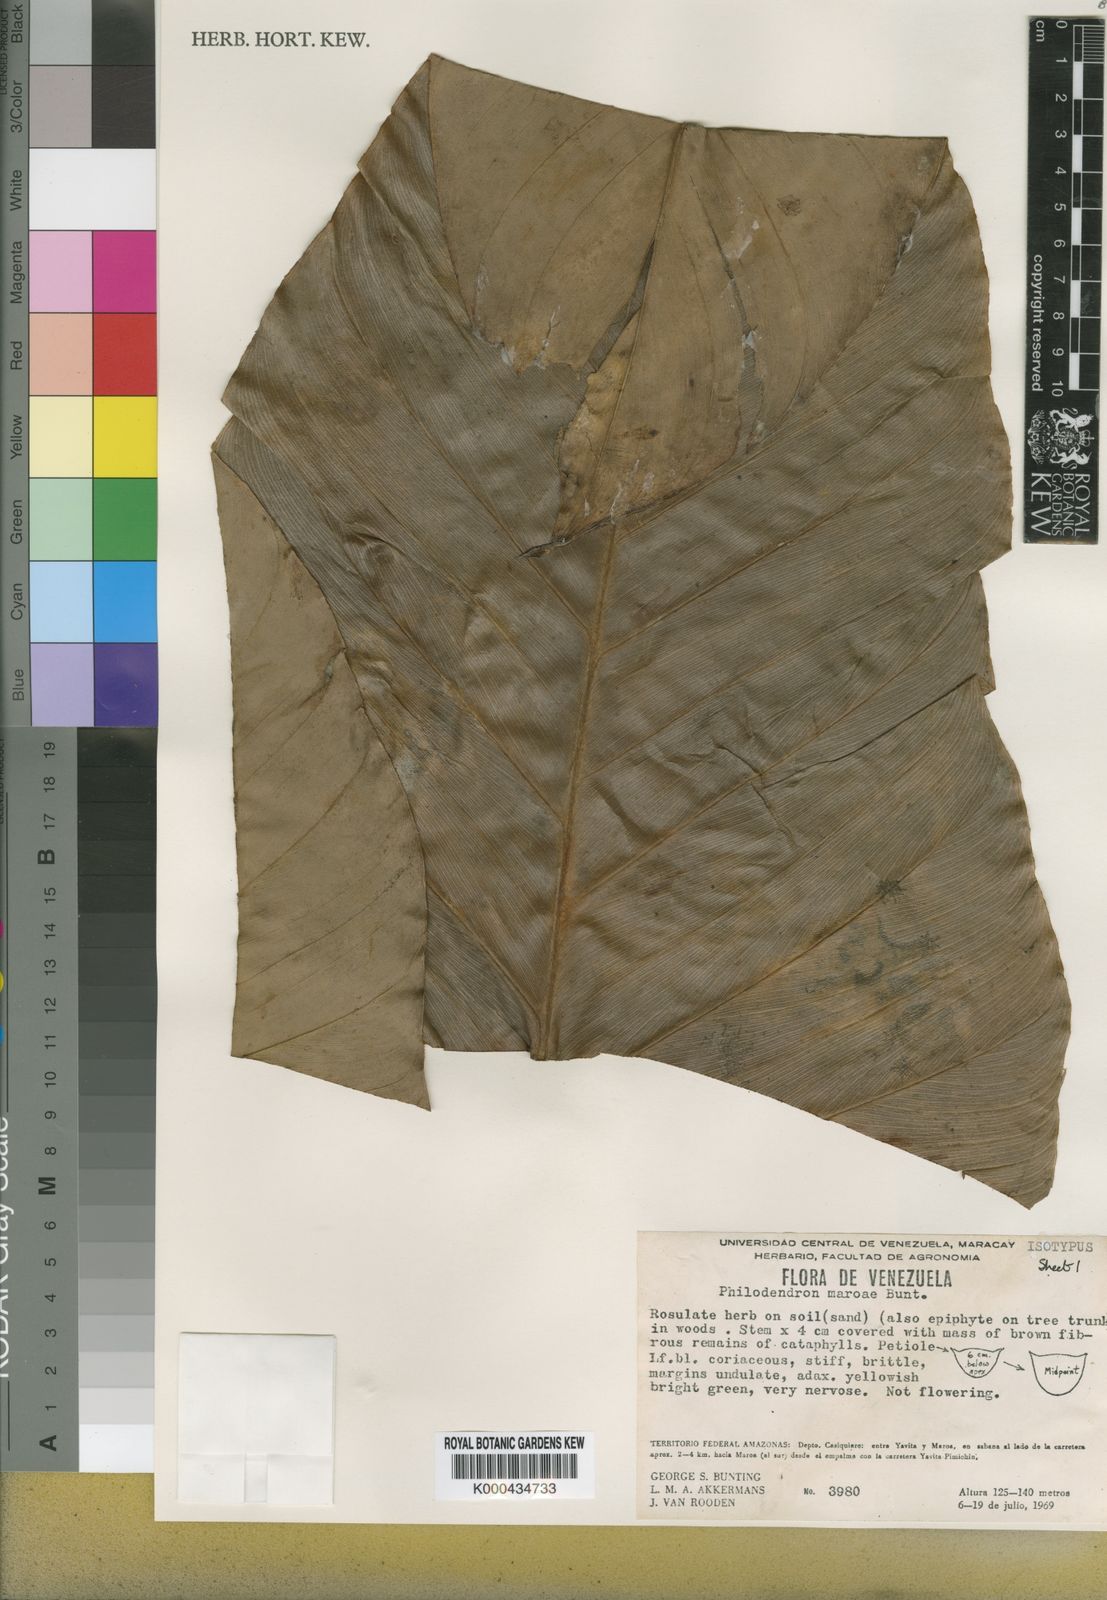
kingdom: Plantae
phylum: Tracheophyta
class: Liliopsida
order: Alismatales
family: Araceae
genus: Philodendron
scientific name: Philodendron maroae
